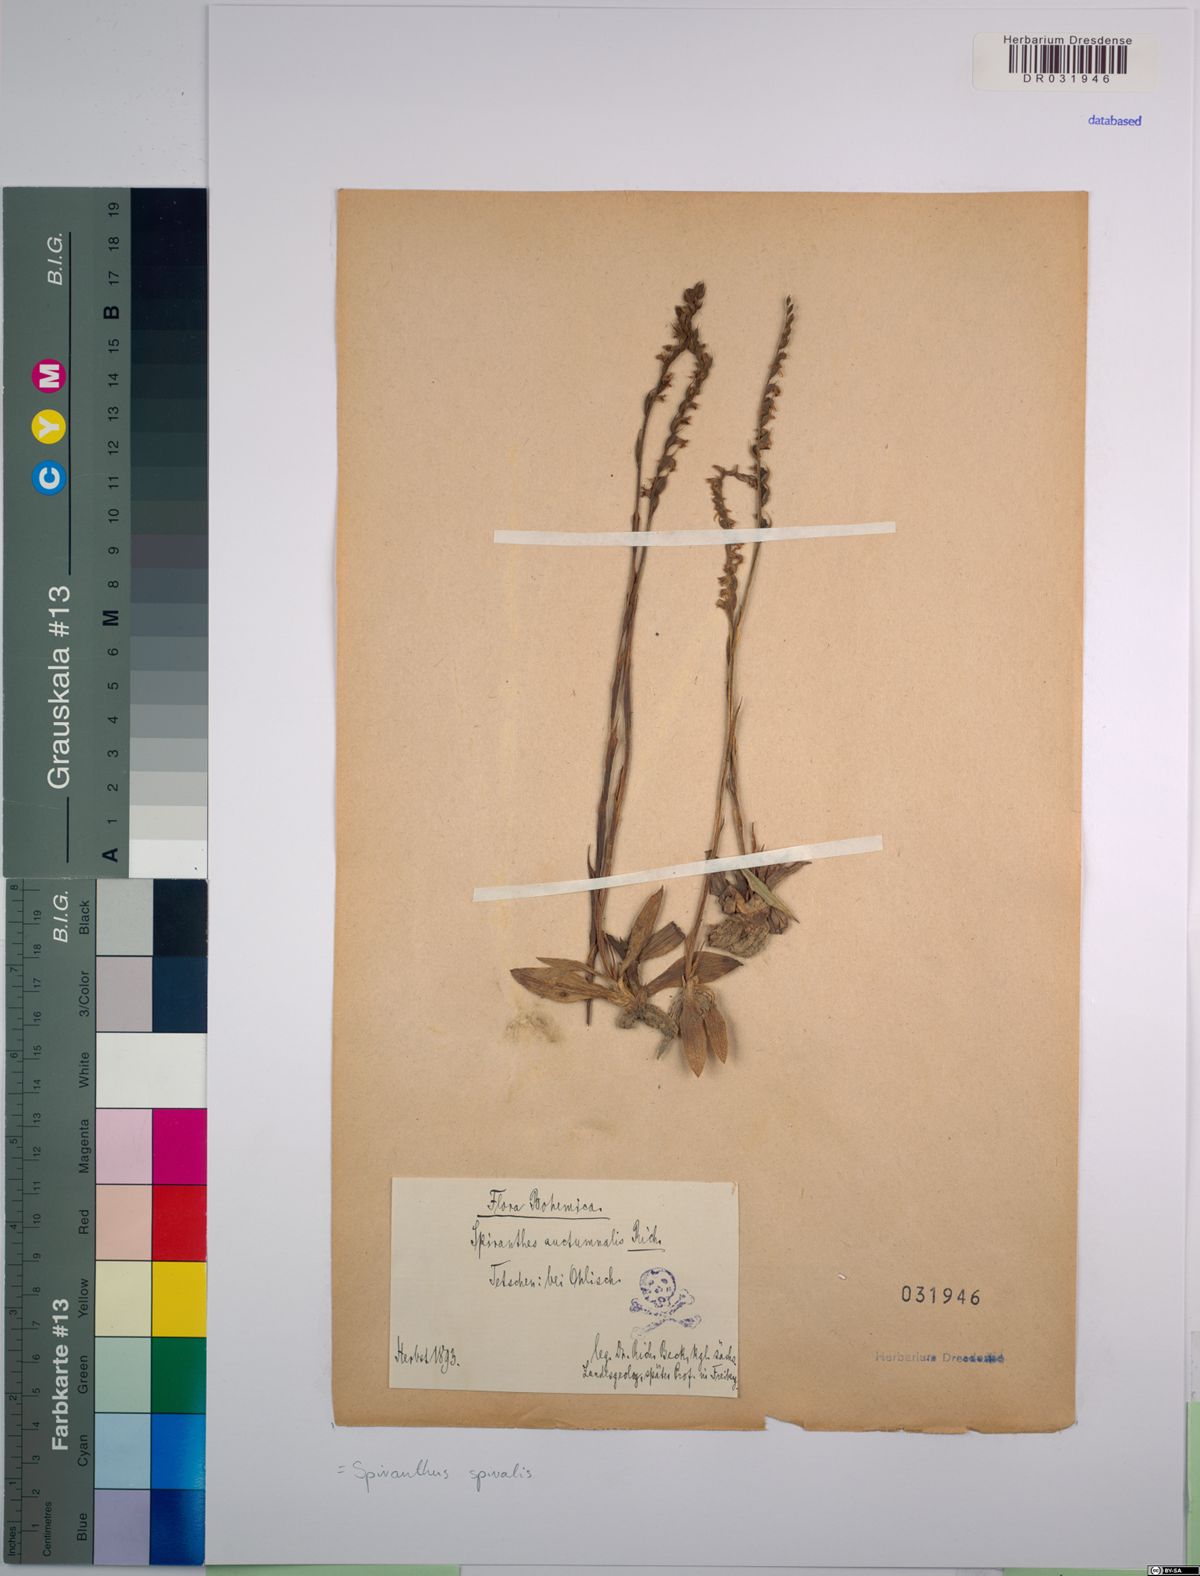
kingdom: Plantae
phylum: Tracheophyta
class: Liliopsida
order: Asparagales
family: Orchidaceae
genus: Spiranthes
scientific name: Spiranthes spiralis
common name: Autumn lady's-tresses
